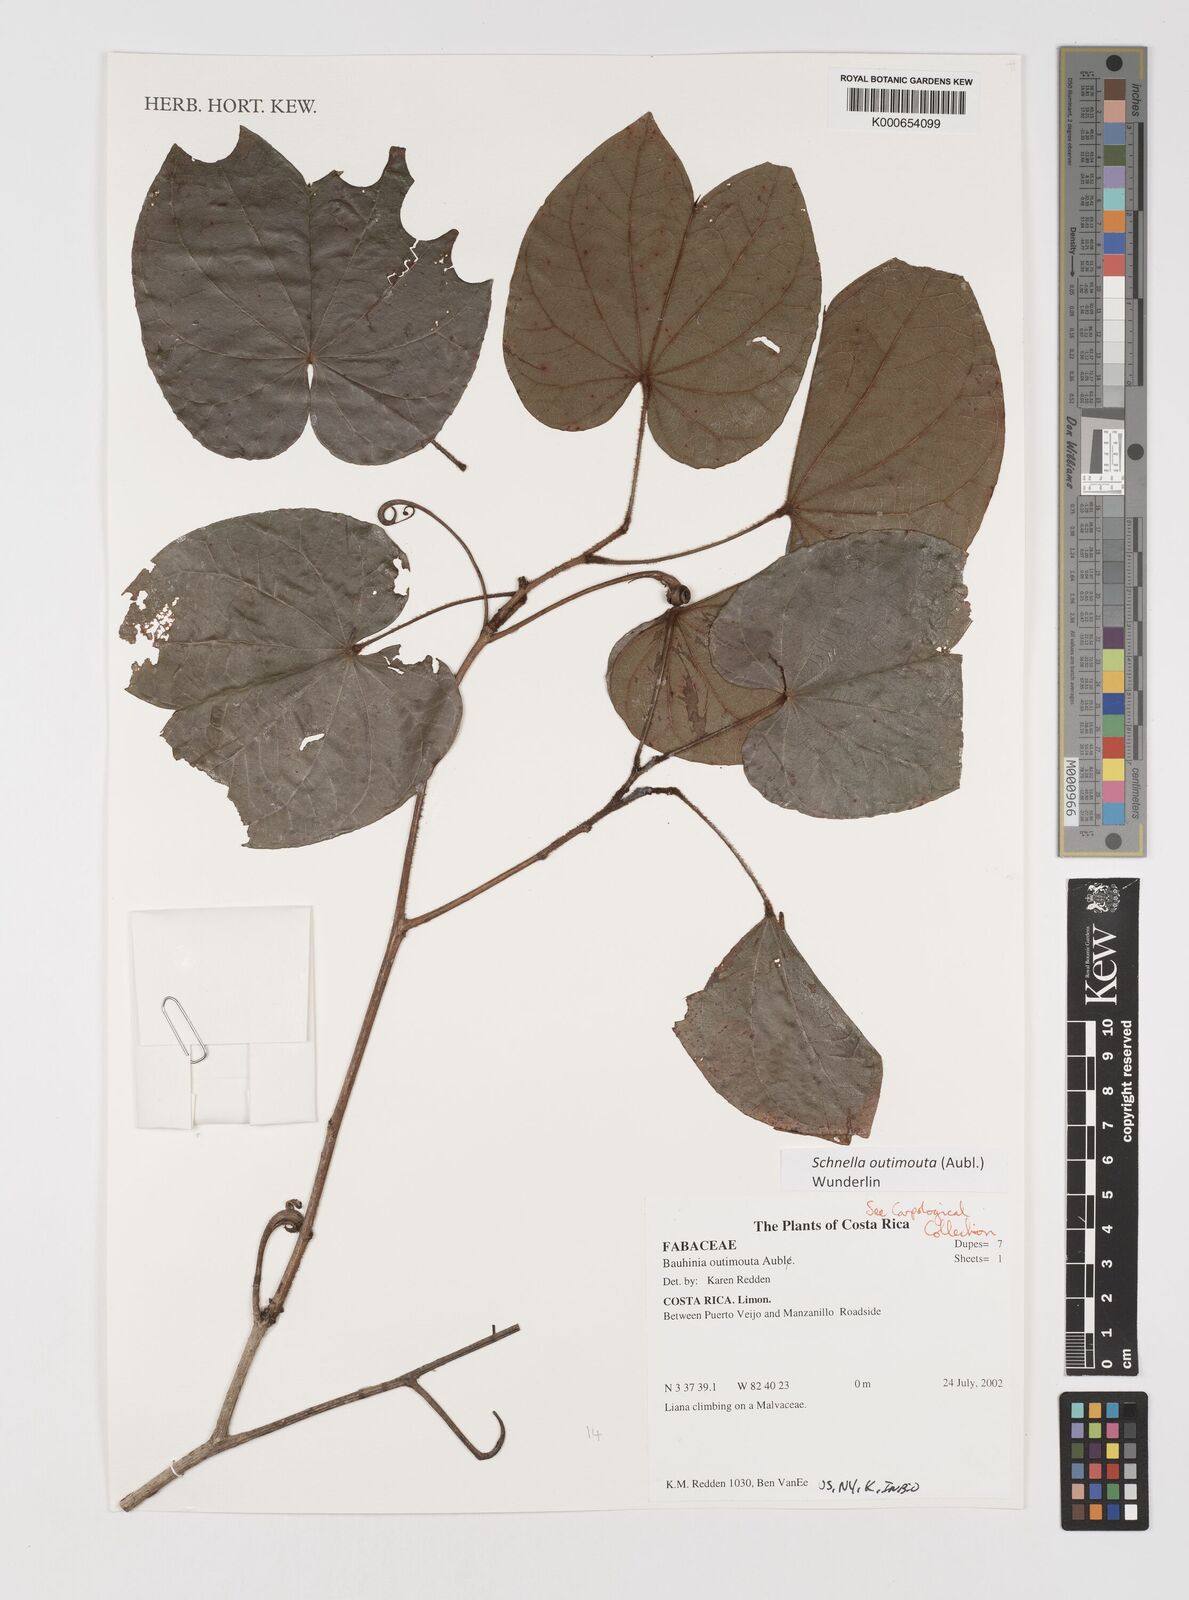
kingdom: Plantae
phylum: Tracheophyta
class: Magnoliopsida
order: Fabales
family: Fabaceae
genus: Schnella
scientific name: Schnella outimouta
